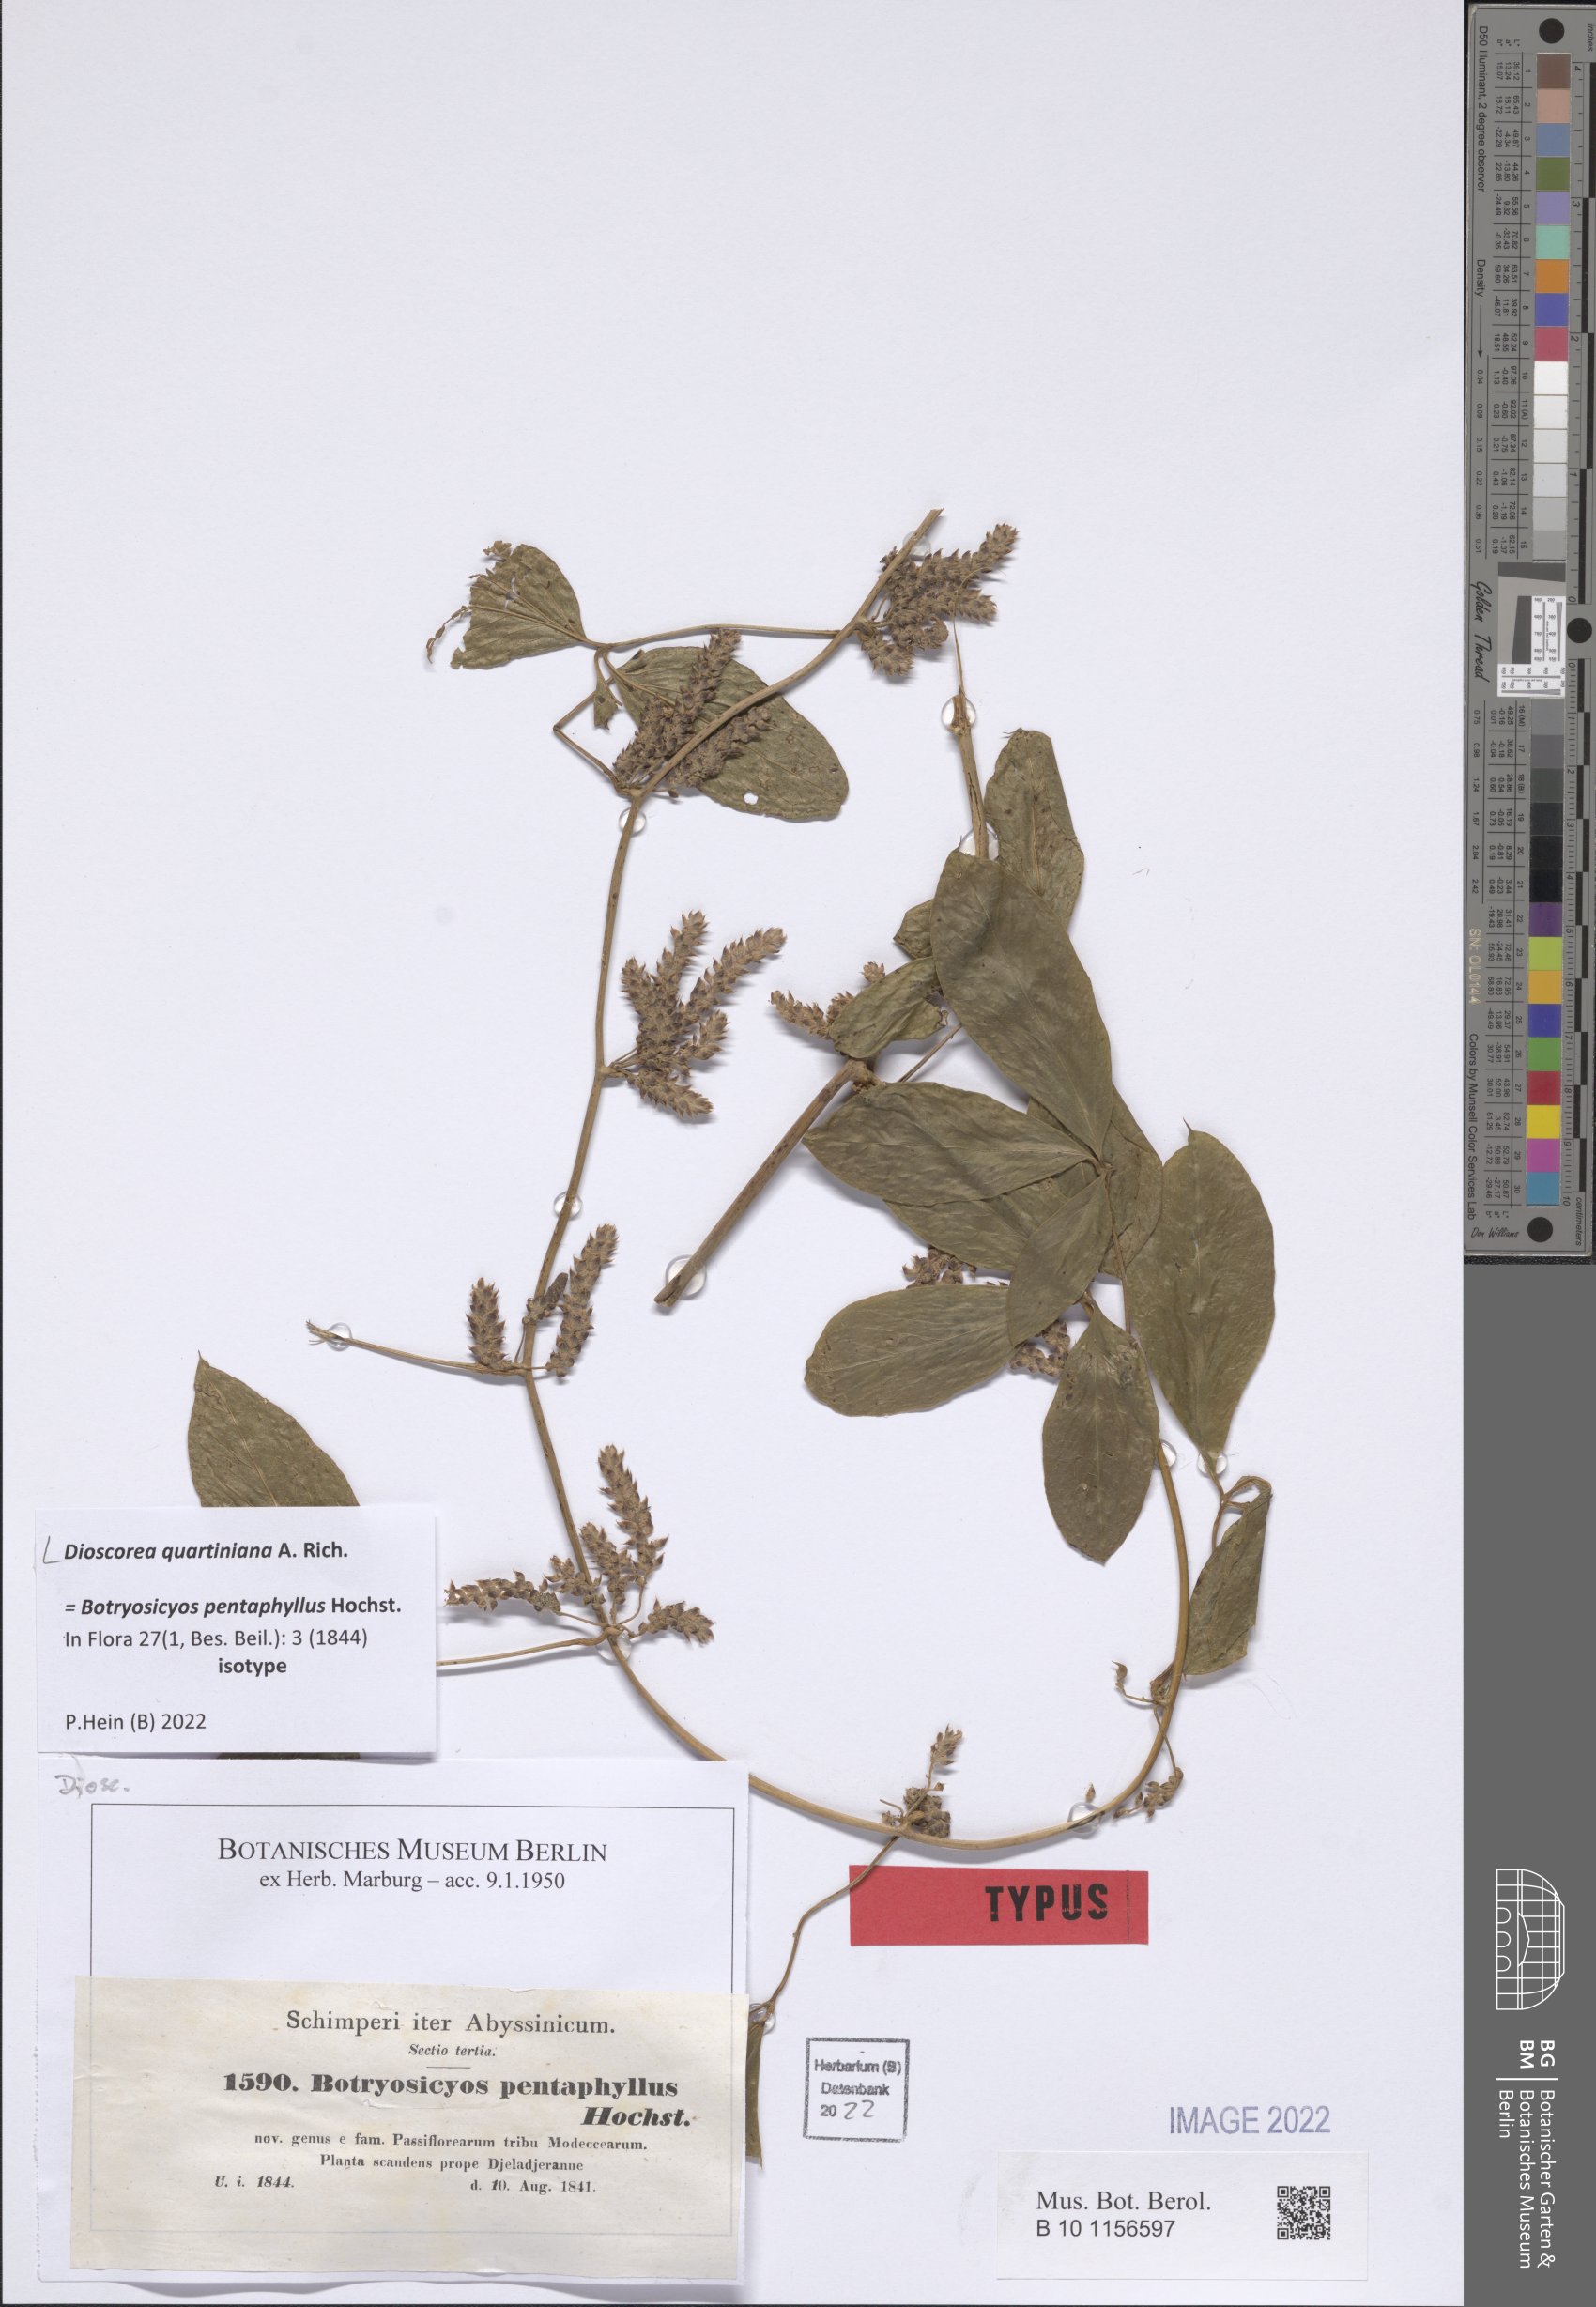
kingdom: Plantae
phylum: Tracheophyta
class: Liliopsida
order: Dioscoreales
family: Dioscoreaceae
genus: Dioscorea
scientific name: Dioscorea quartiniana
